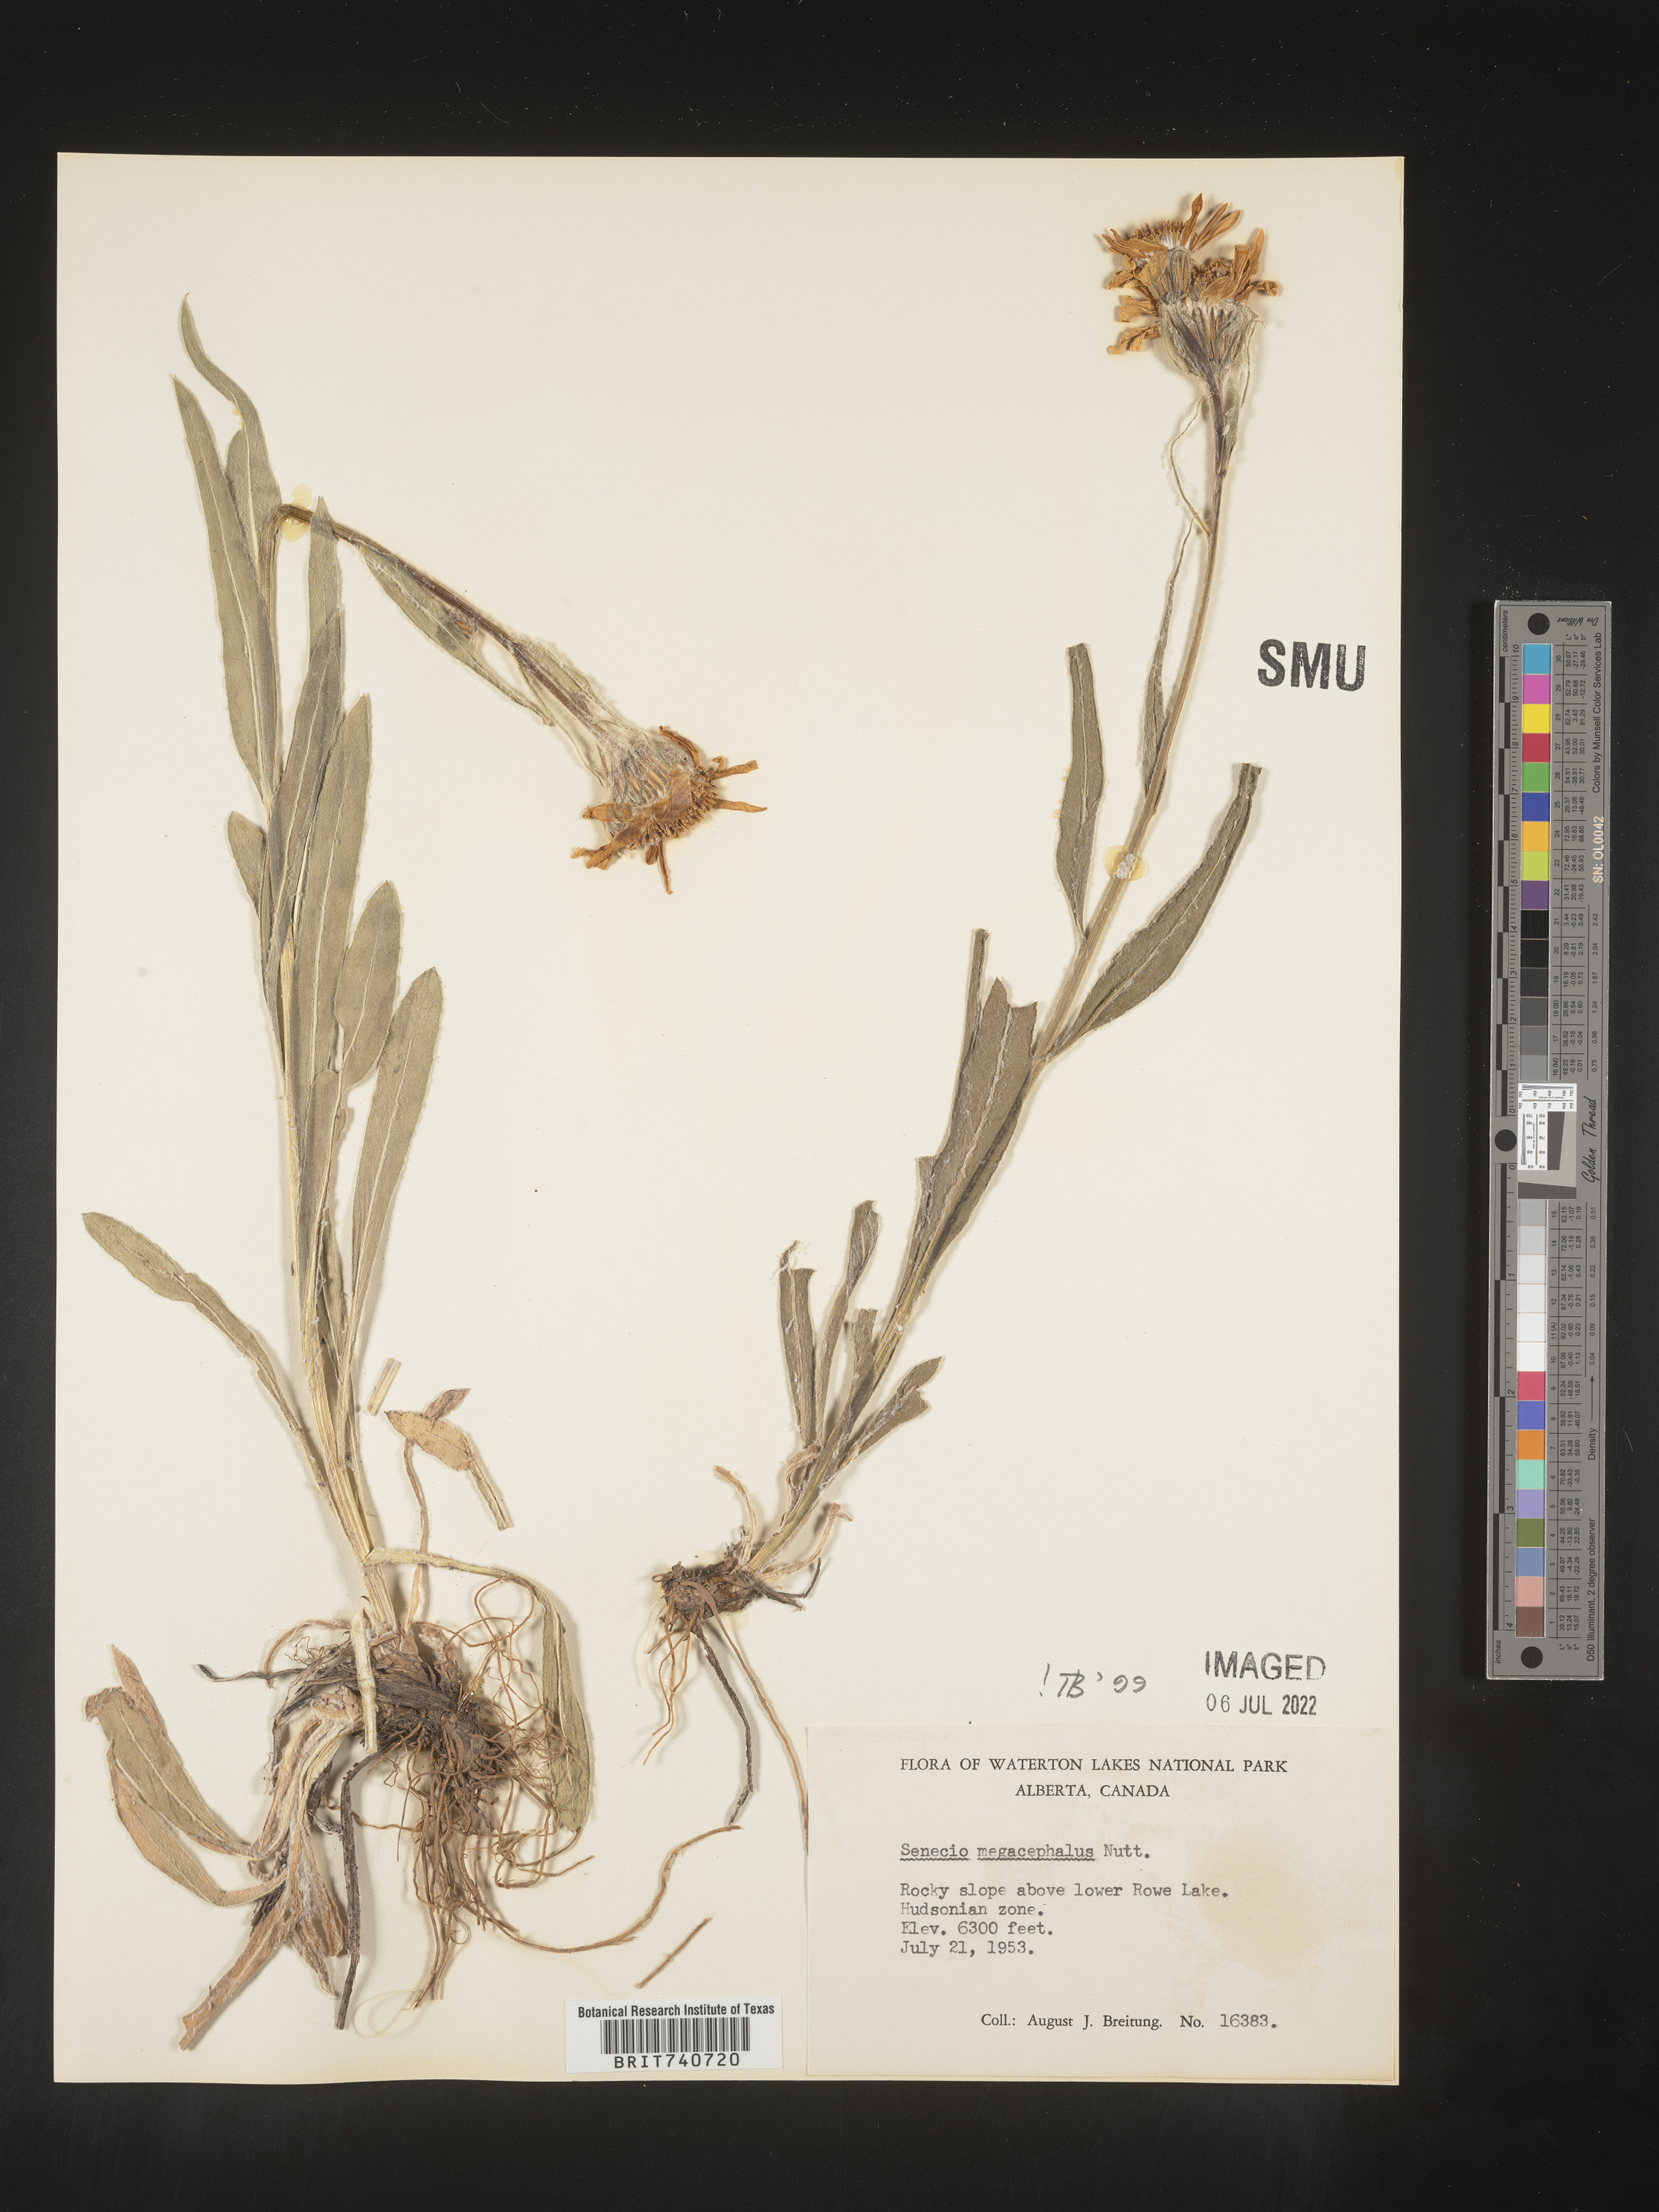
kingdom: Plantae
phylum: Tracheophyta
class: Magnoliopsida
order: Asterales
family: Asteraceae
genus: Senecio
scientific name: Senecio megacephalus
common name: Large-flowered ragwort
